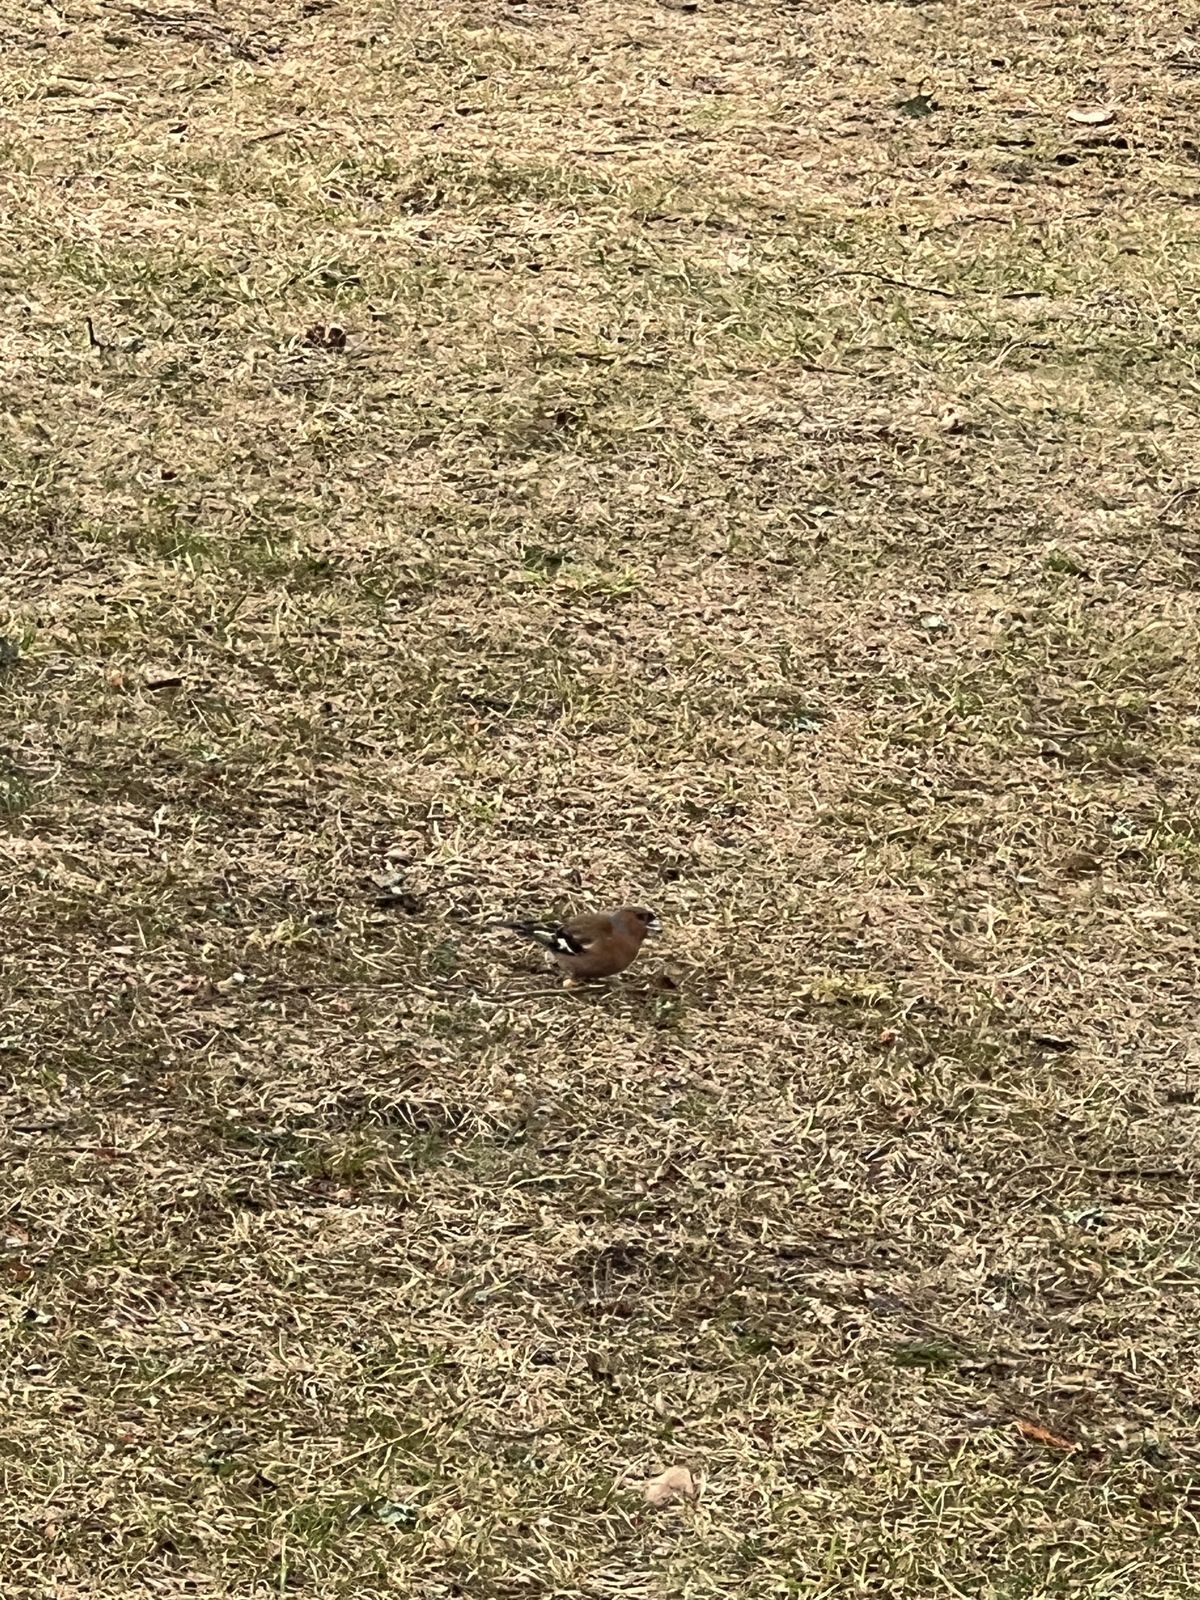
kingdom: Animalia
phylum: Chordata
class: Aves
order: Passeriformes
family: Emberizidae
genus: Emberiza
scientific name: Emberiza citrinella
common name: Yellowhammer
